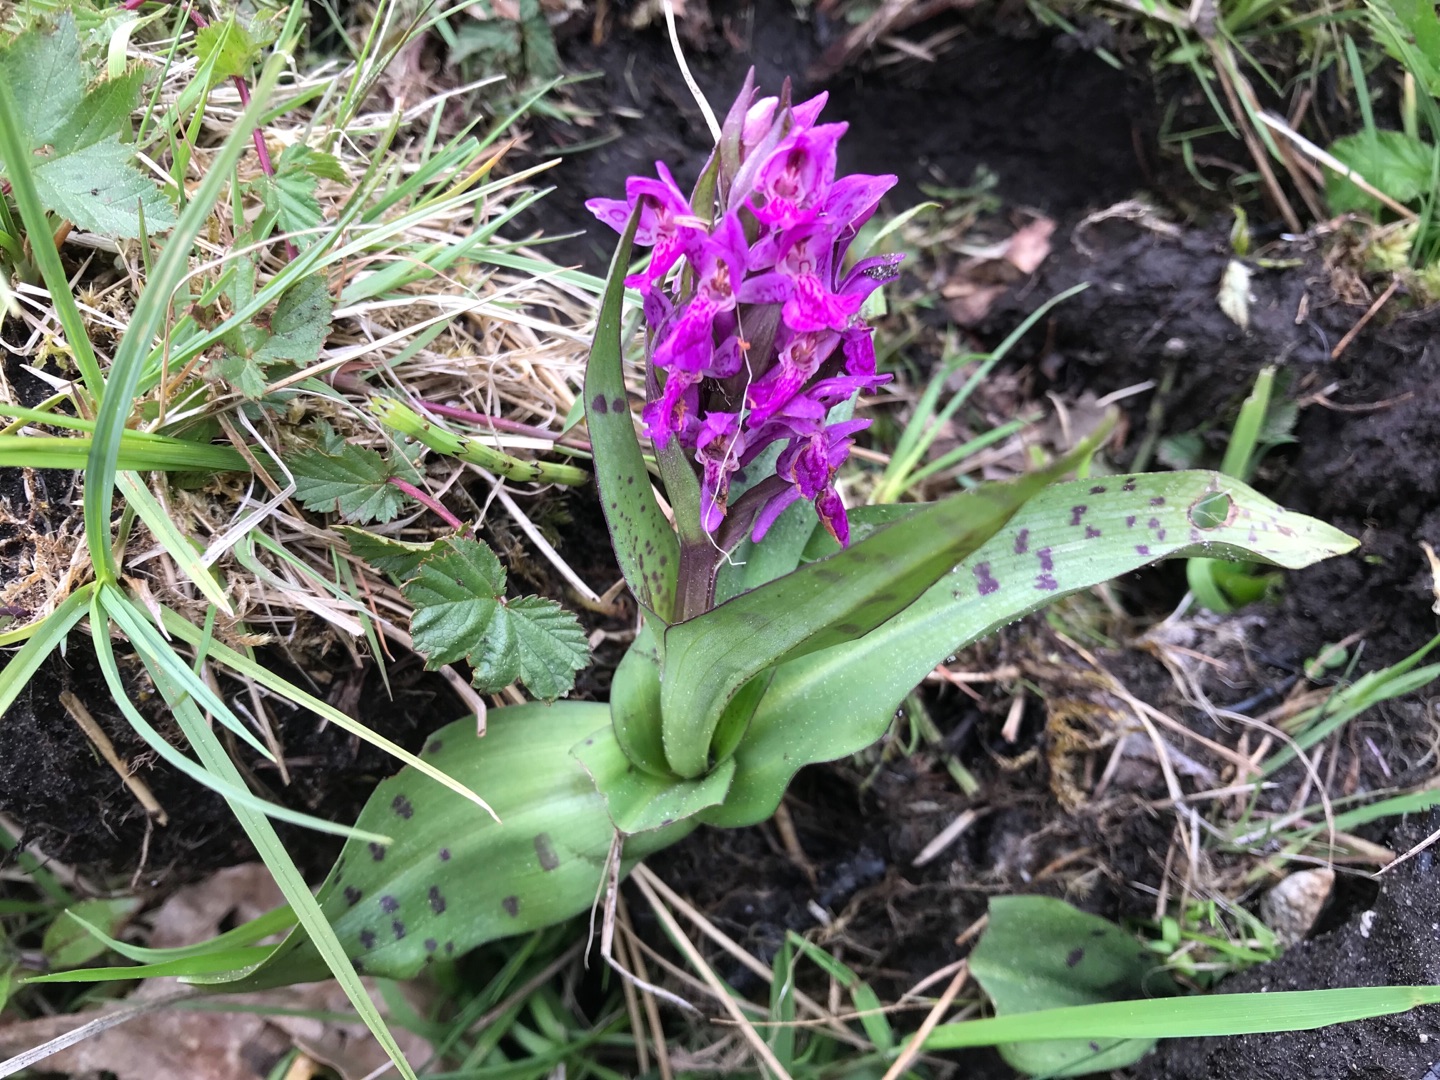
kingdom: Plantae
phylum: Tracheophyta
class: Liliopsida
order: Asparagales
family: Orchidaceae
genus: Dactylorhiza
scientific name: Dactylorhiza majalis
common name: Maj-gøgeurt
